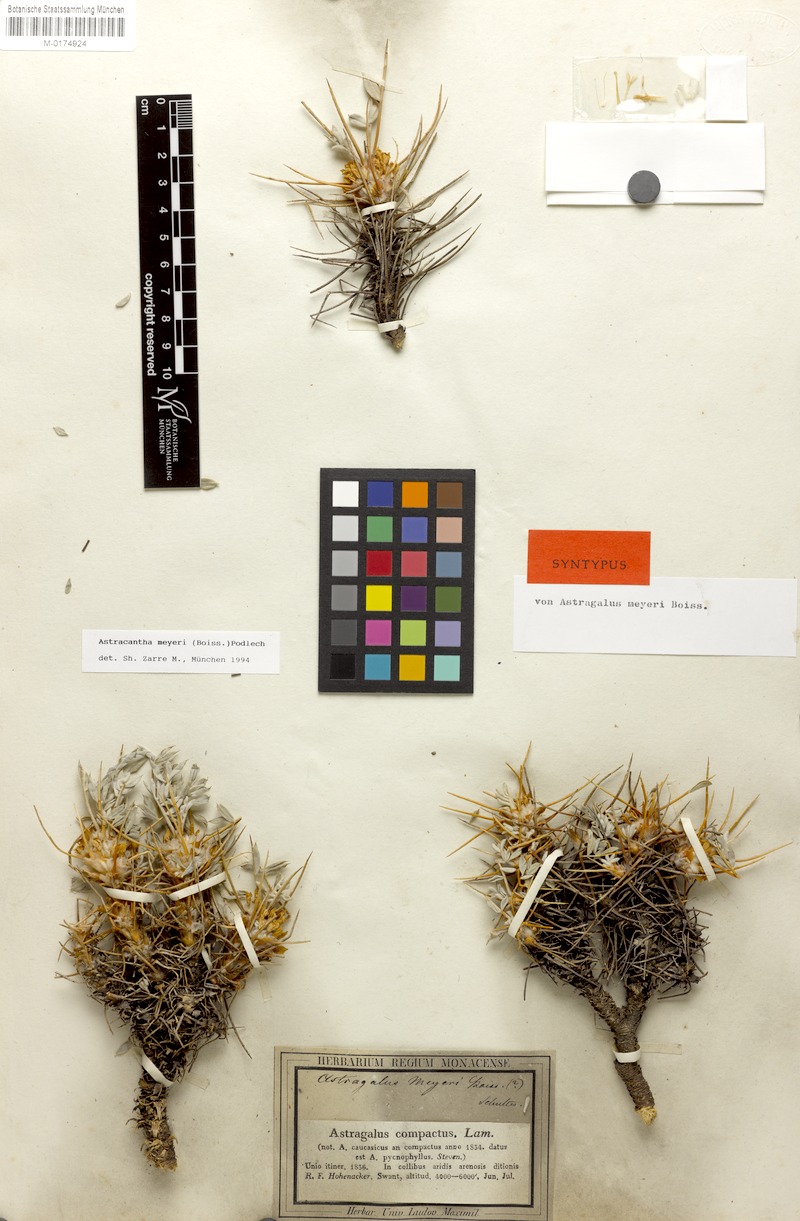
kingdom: Plantae
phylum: Tracheophyta
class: Magnoliopsida
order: Fabales
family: Fabaceae
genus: Astragalus
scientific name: Astragalus meyeri
